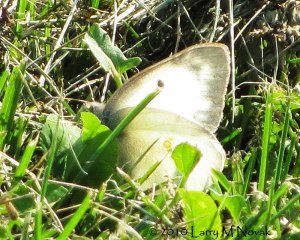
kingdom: Animalia
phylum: Arthropoda
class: Insecta
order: Lepidoptera
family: Pieridae
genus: Colias
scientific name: Colias philodice
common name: Clouded Sulphur
